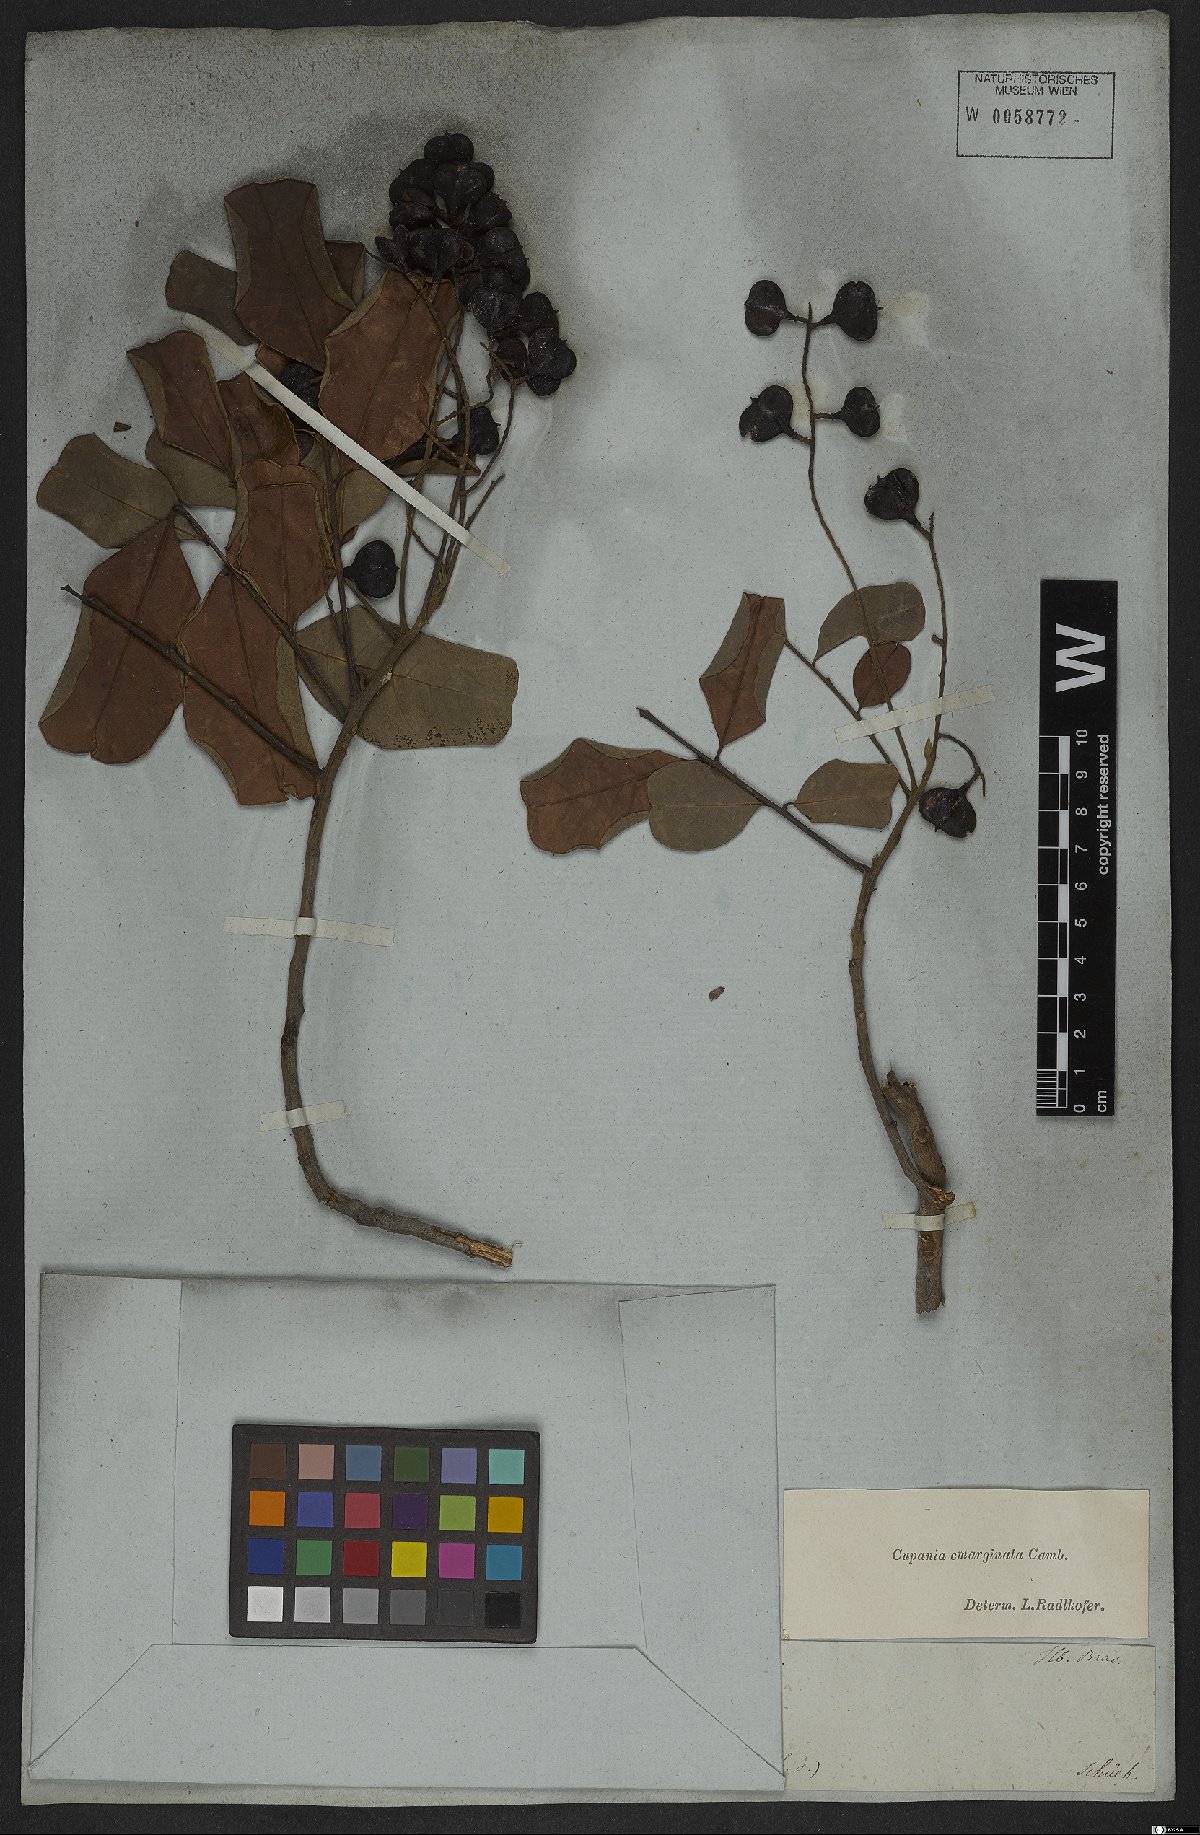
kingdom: Plantae
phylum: Tracheophyta
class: Magnoliopsida
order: Sapindales
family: Sapindaceae
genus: Cupania
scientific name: Cupania emarginata
